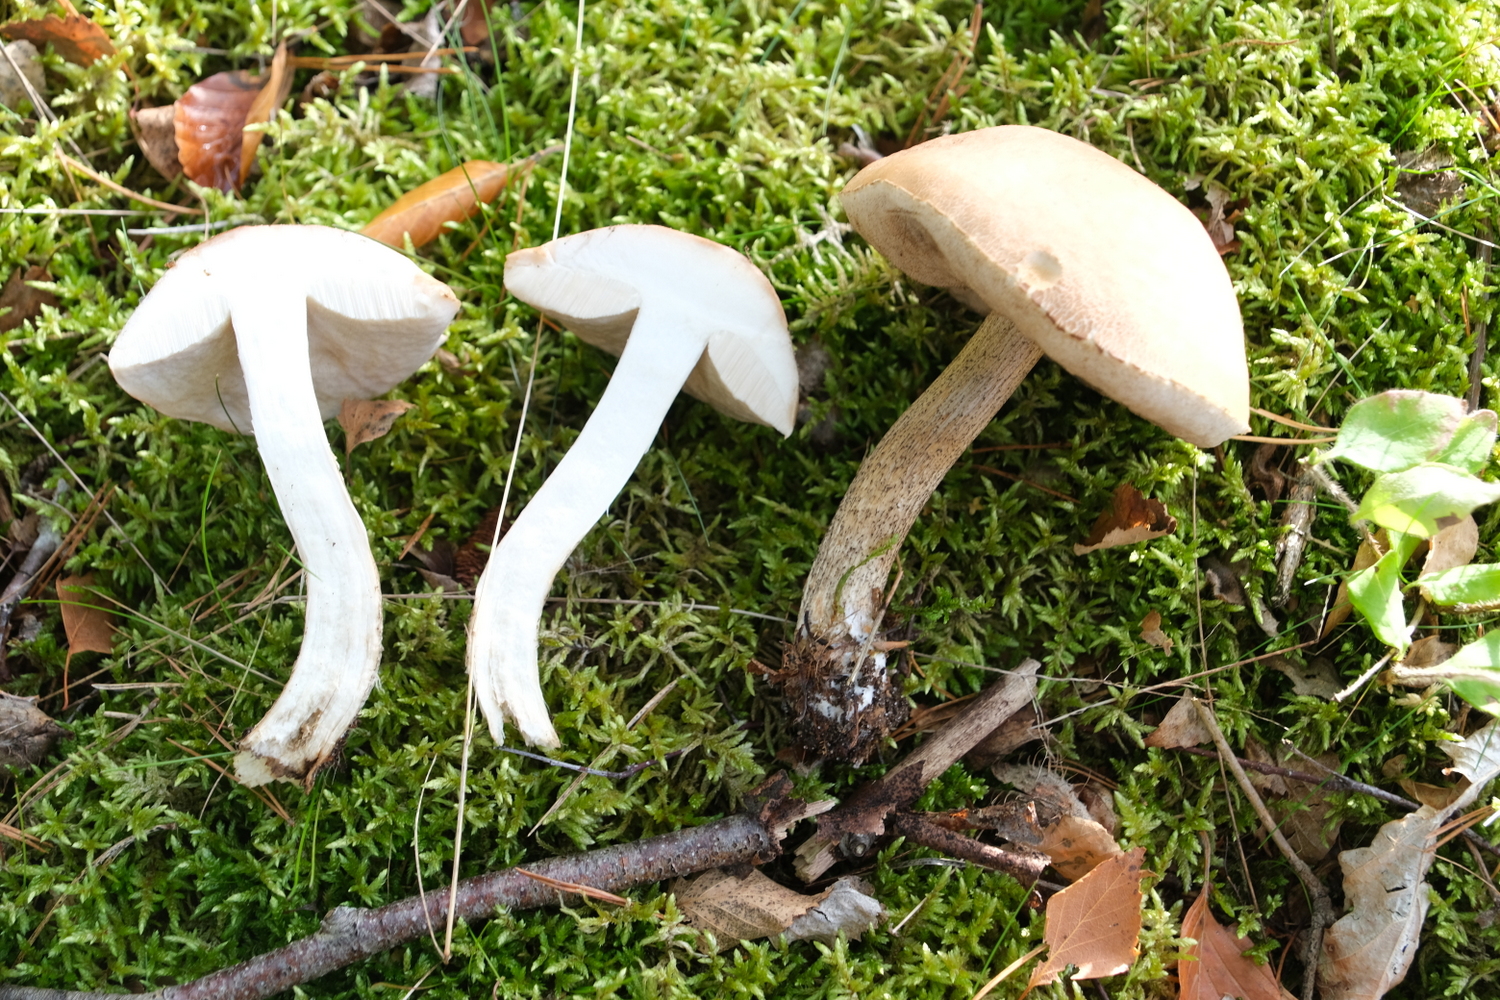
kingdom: Fungi
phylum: Basidiomycota
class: Agaricomycetes
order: Boletales
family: Boletaceae
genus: Leccinum
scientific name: Leccinum scabrum
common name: brun skælrørhat
